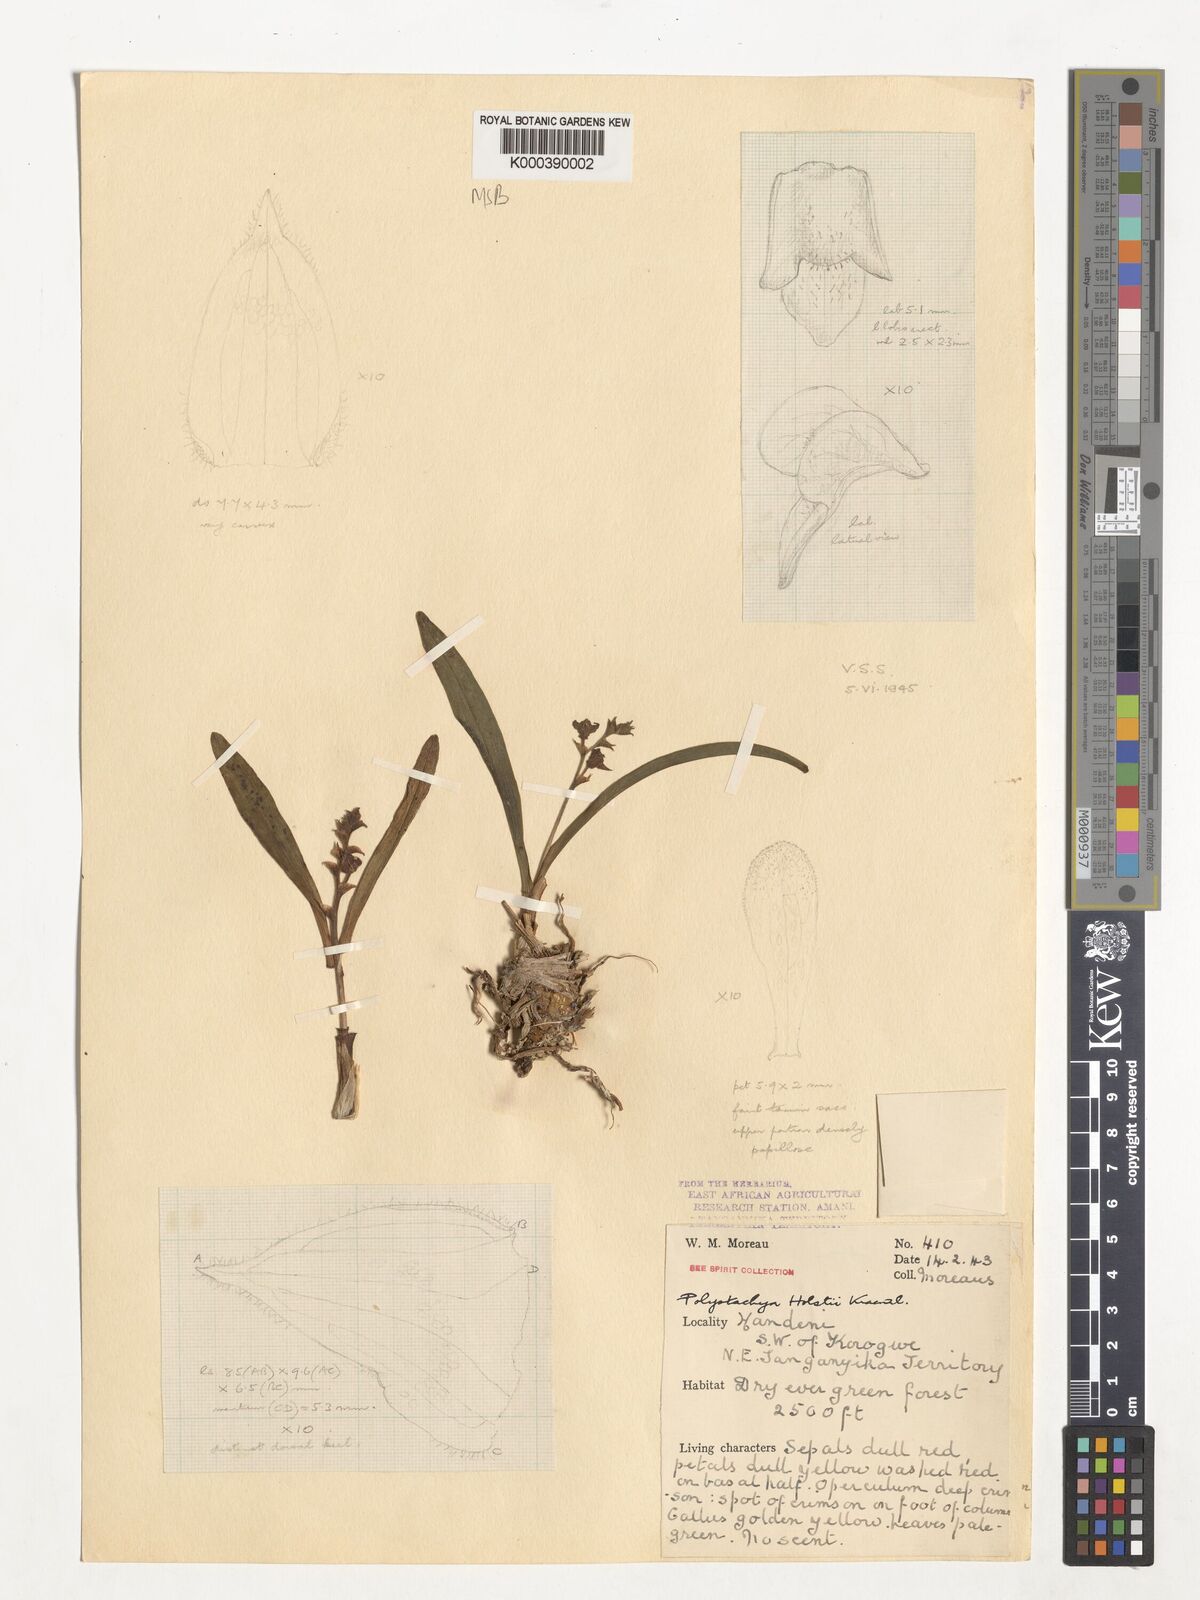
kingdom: Plantae
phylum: Tracheophyta
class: Liliopsida
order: Asparagales
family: Orchidaceae
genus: Polystachya
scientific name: Polystachya fischeri
